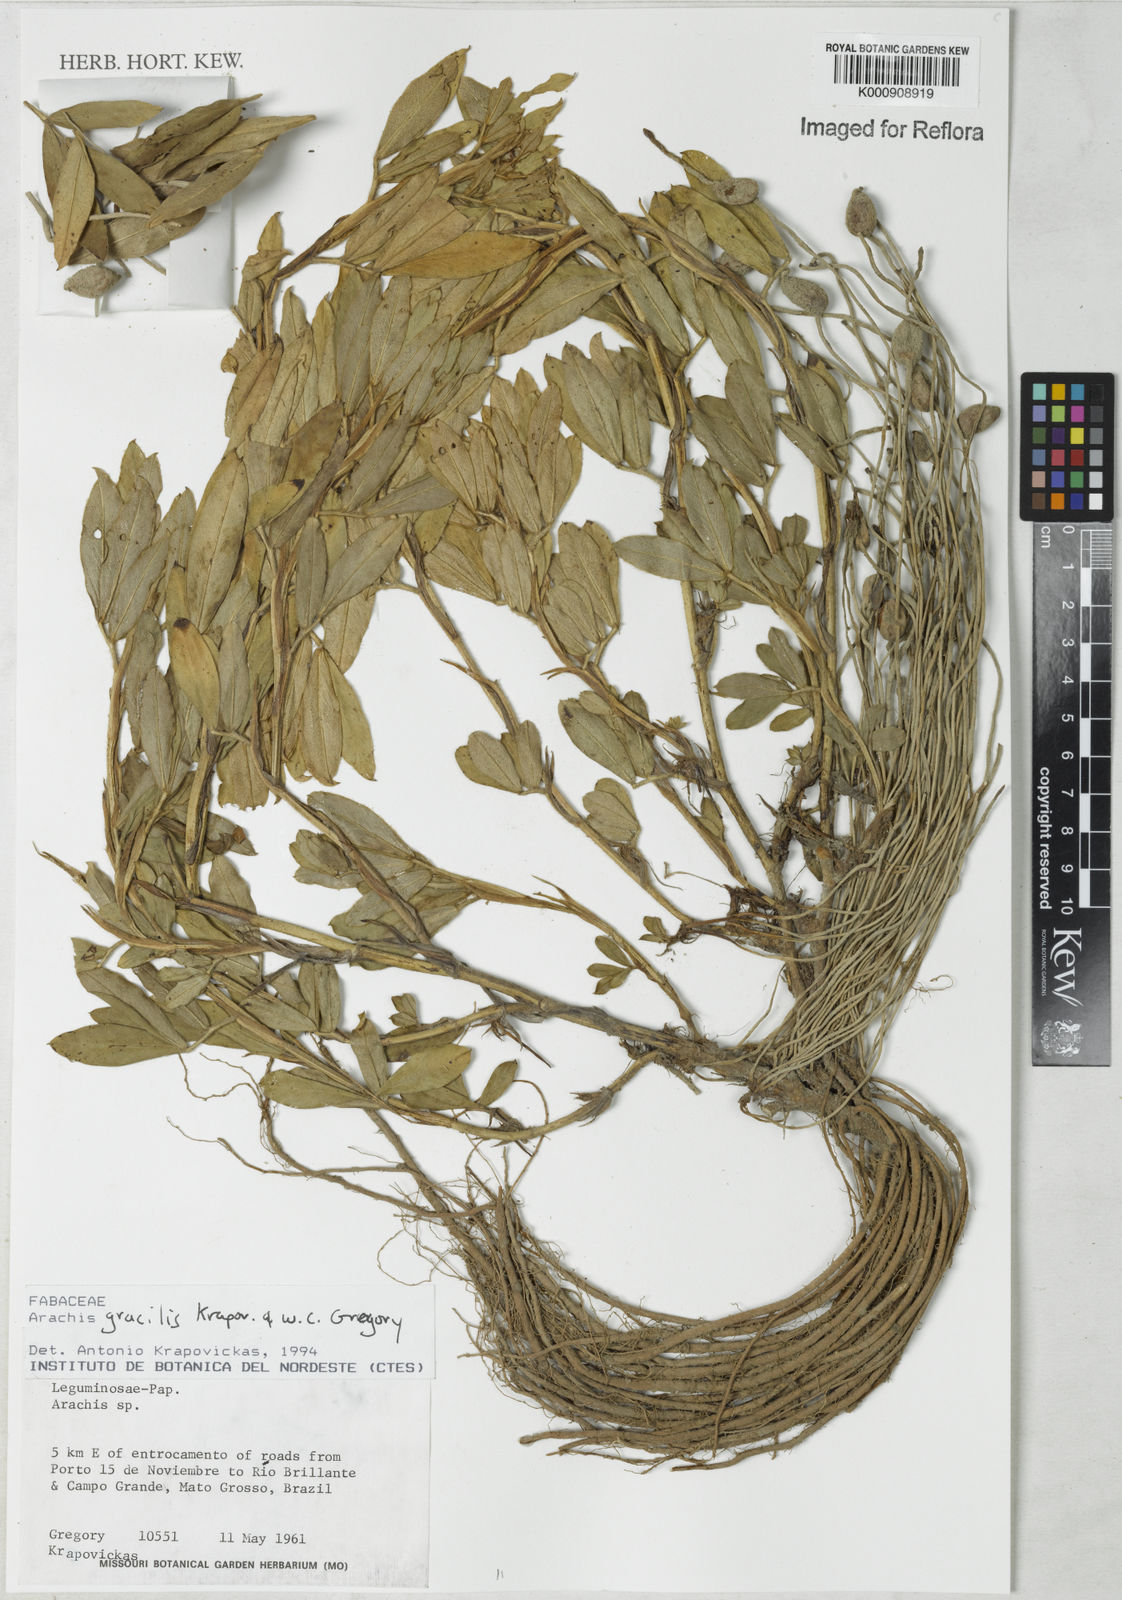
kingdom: Plantae
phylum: Tracheophyta
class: Magnoliopsida
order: Fabales
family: Fabaceae
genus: Arachis
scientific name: Arachis gracilis
